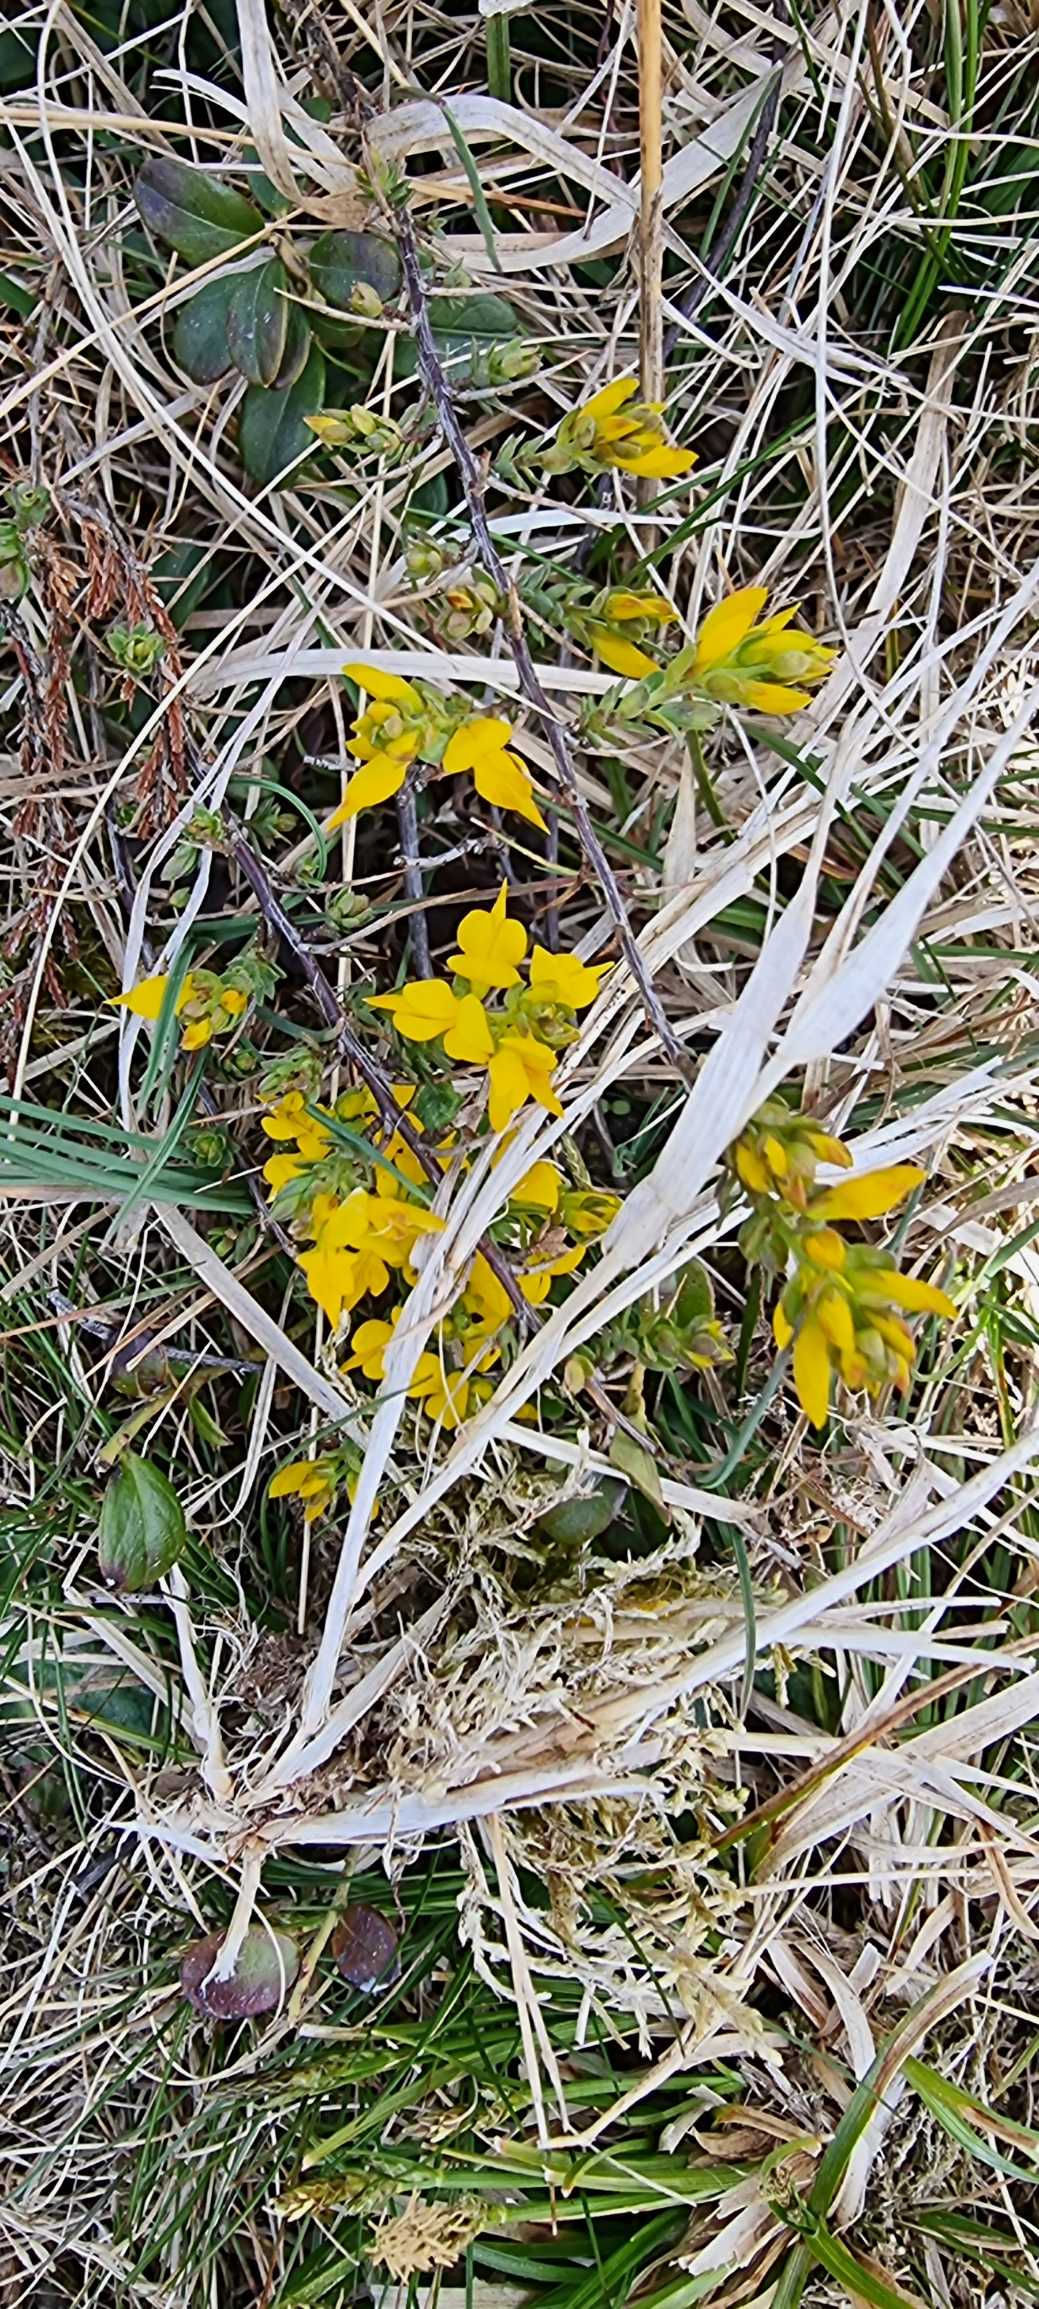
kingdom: Plantae
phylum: Tracheophyta
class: Magnoliopsida
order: Fabales
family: Fabaceae
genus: Genista
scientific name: Genista anglica
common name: Engelsk visse
